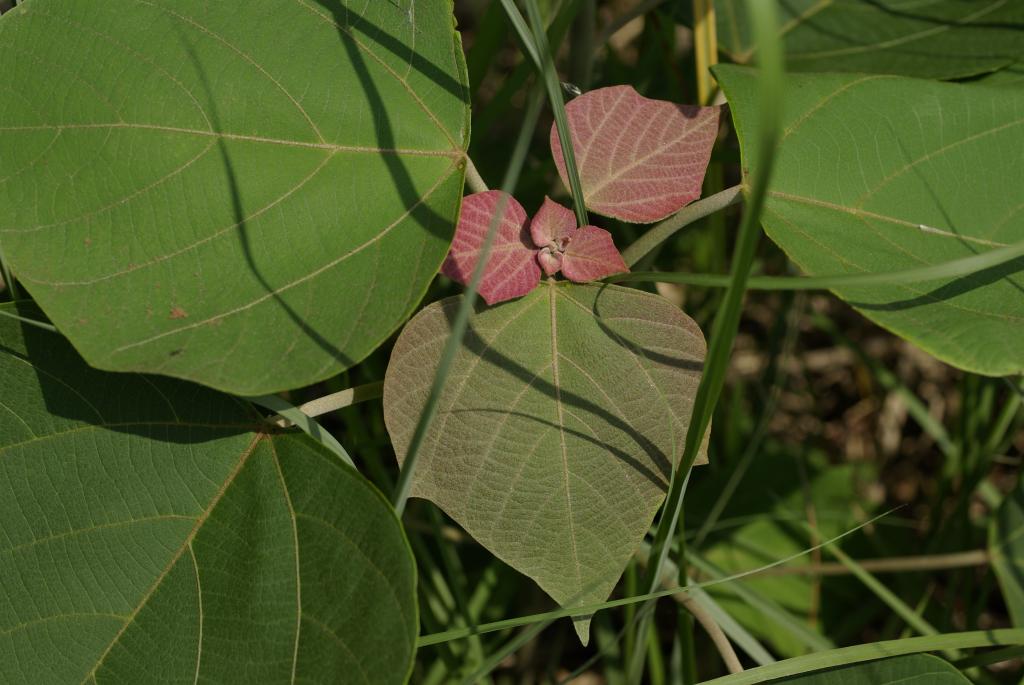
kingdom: Plantae
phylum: Tracheophyta
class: Magnoliopsida
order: Malpighiales
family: Euphorbiaceae
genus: Mallotus
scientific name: Mallotus japonicus
